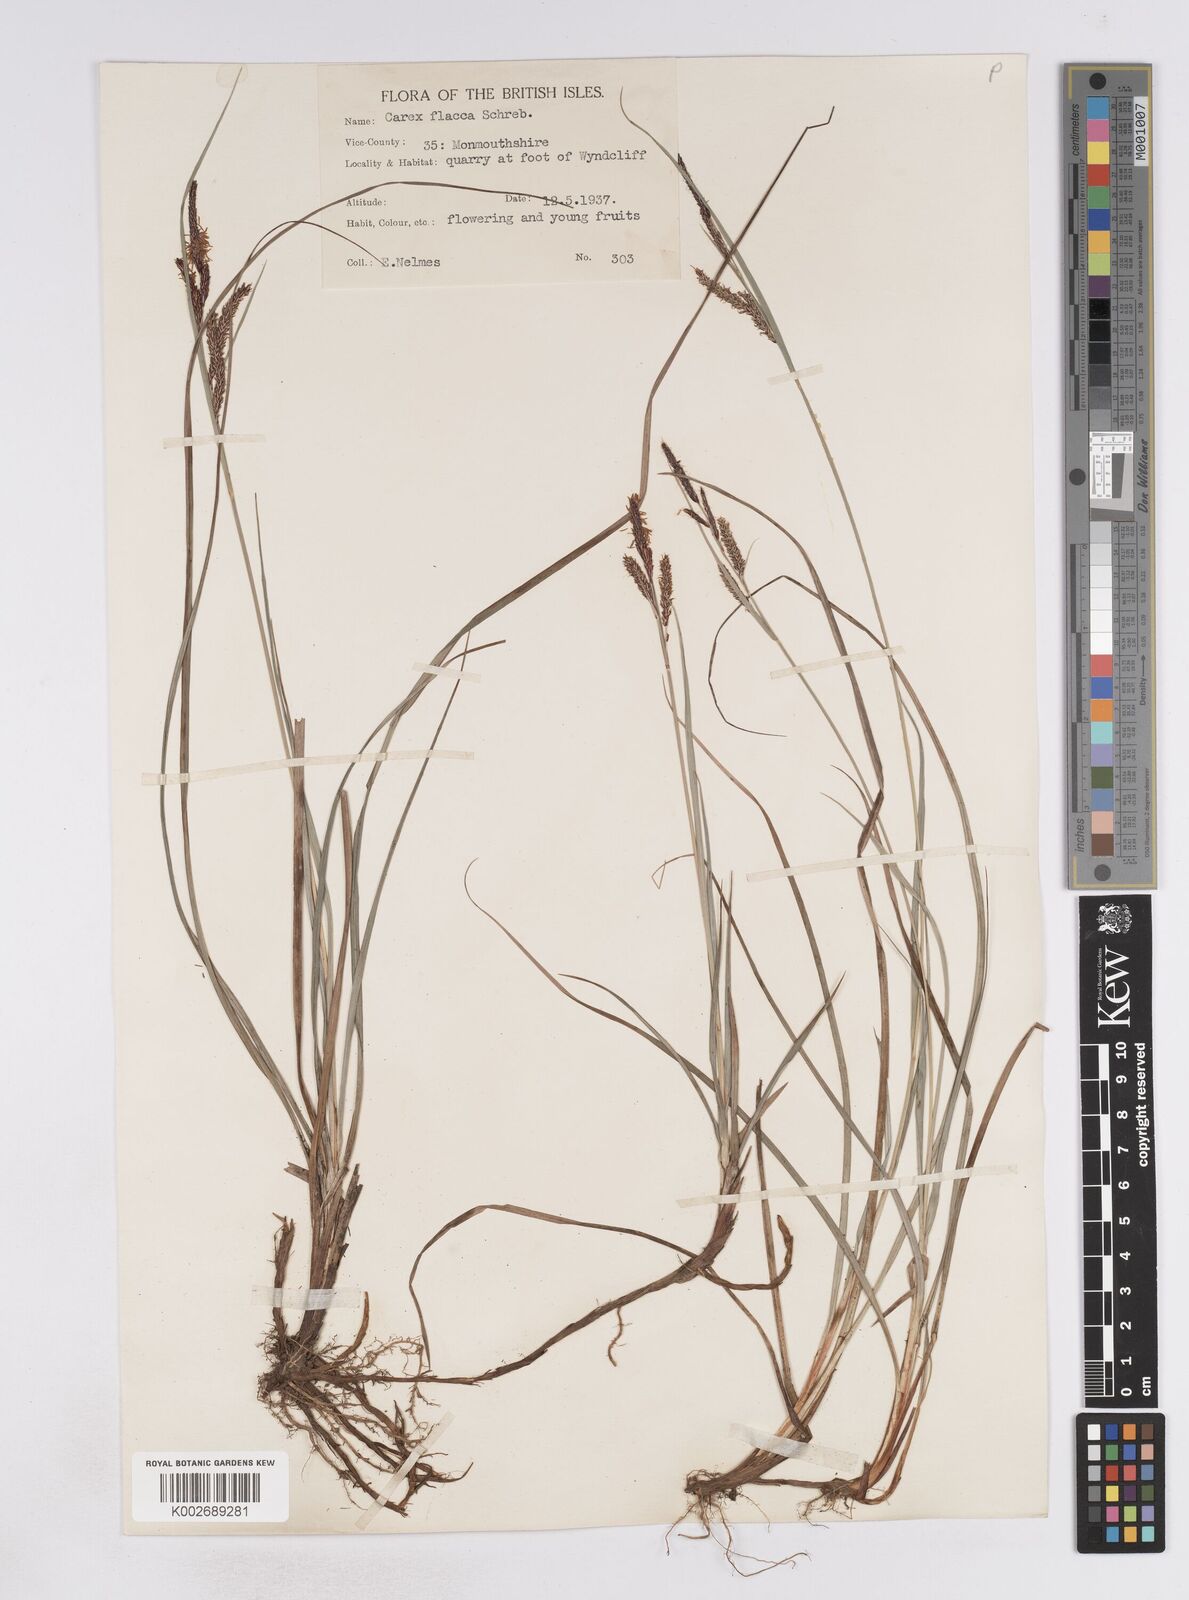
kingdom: Plantae
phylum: Tracheophyta
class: Liliopsida
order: Poales
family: Cyperaceae
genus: Carex
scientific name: Carex flacca
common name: Glaucous sedge
